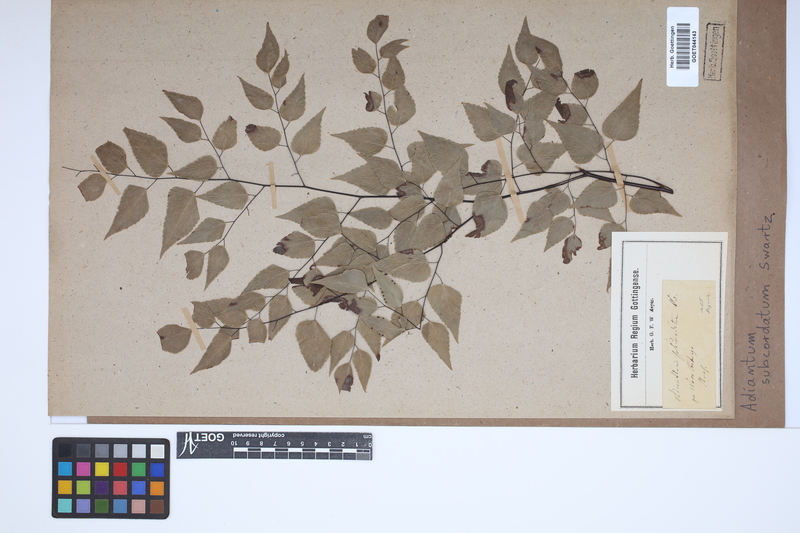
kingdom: Plantae
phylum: Tracheophyta
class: Polypodiopsida
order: Polypodiales
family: Pteridaceae
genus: Adiantum
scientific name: Adiantum subcordatum
